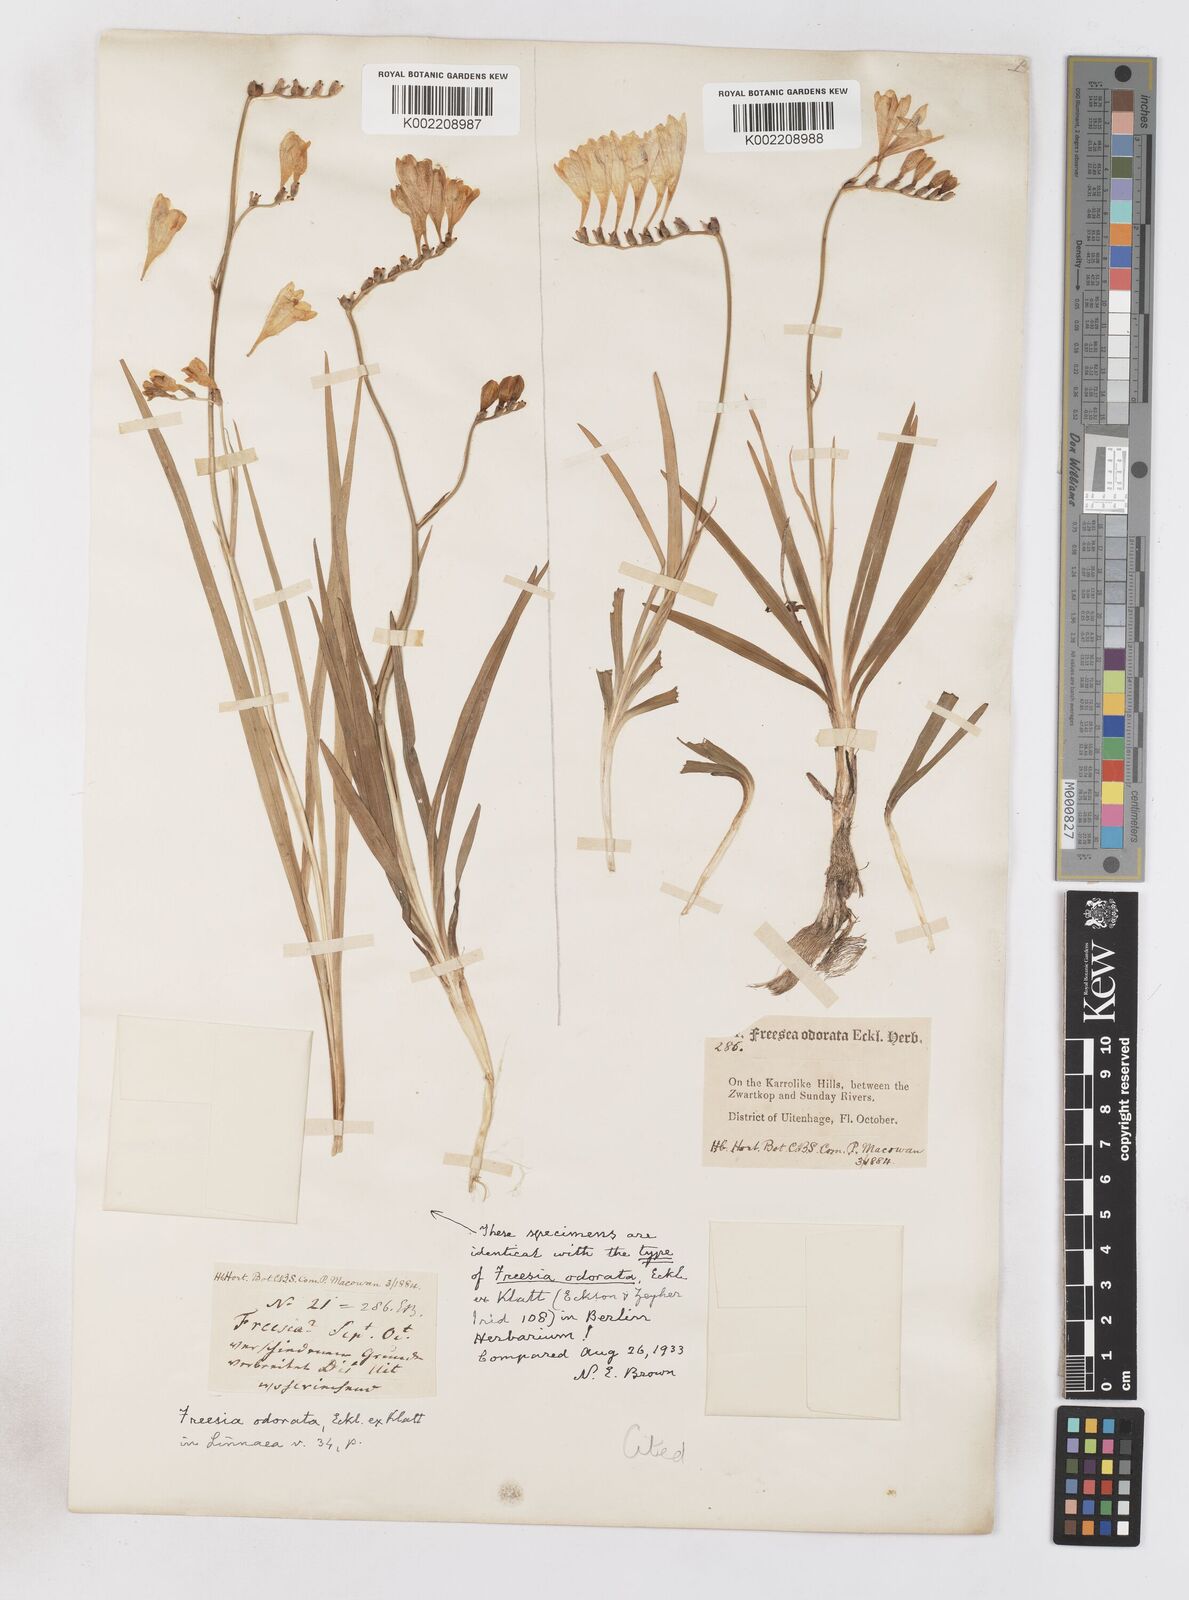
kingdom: Plantae
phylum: Tracheophyta
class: Liliopsida
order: Asparagales
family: Iridaceae
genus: Freesia
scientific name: Freesia corymbosa
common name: Common freesia
